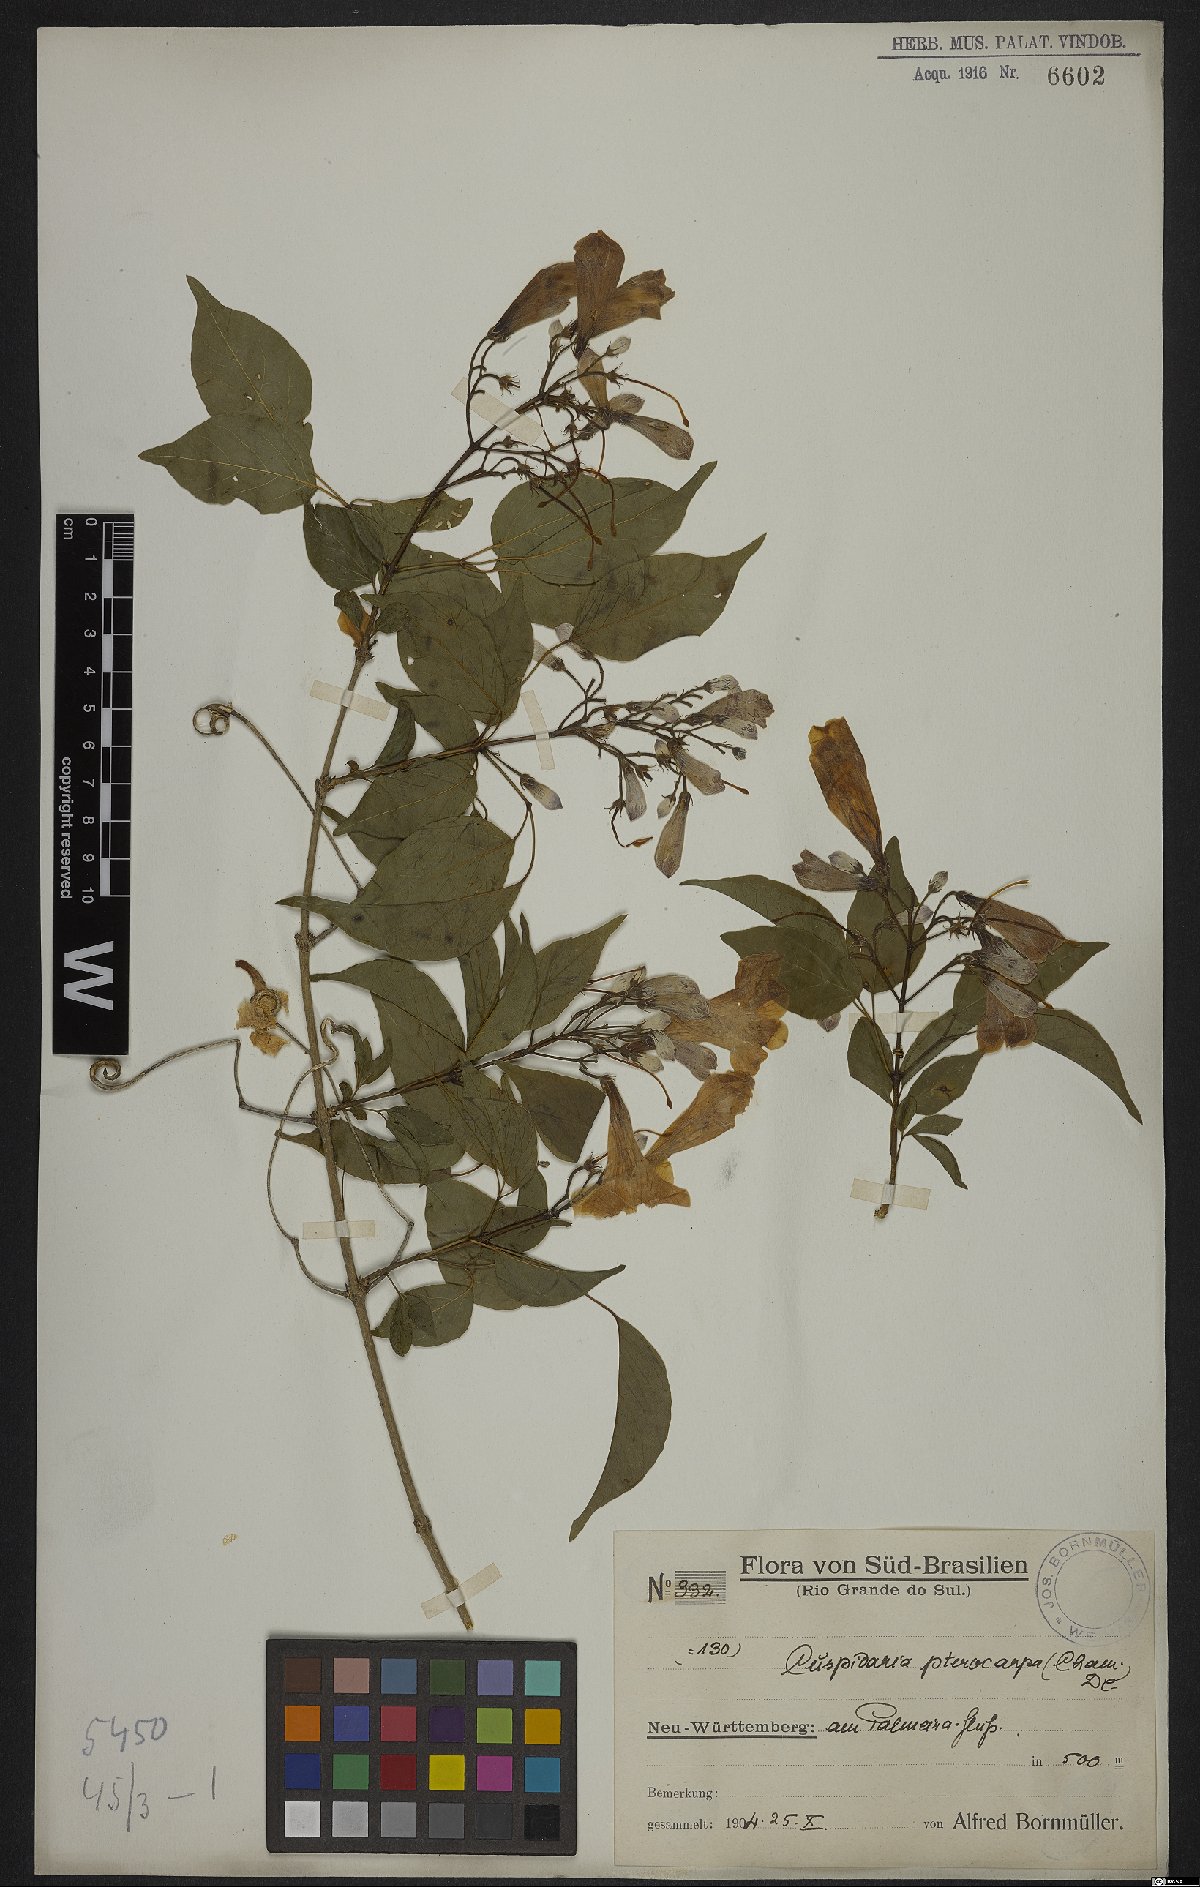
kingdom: Plantae
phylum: Tracheophyta
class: Magnoliopsida
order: Lamiales
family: Bignoniaceae
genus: Cuspidaria
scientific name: Cuspidaria convoluta
